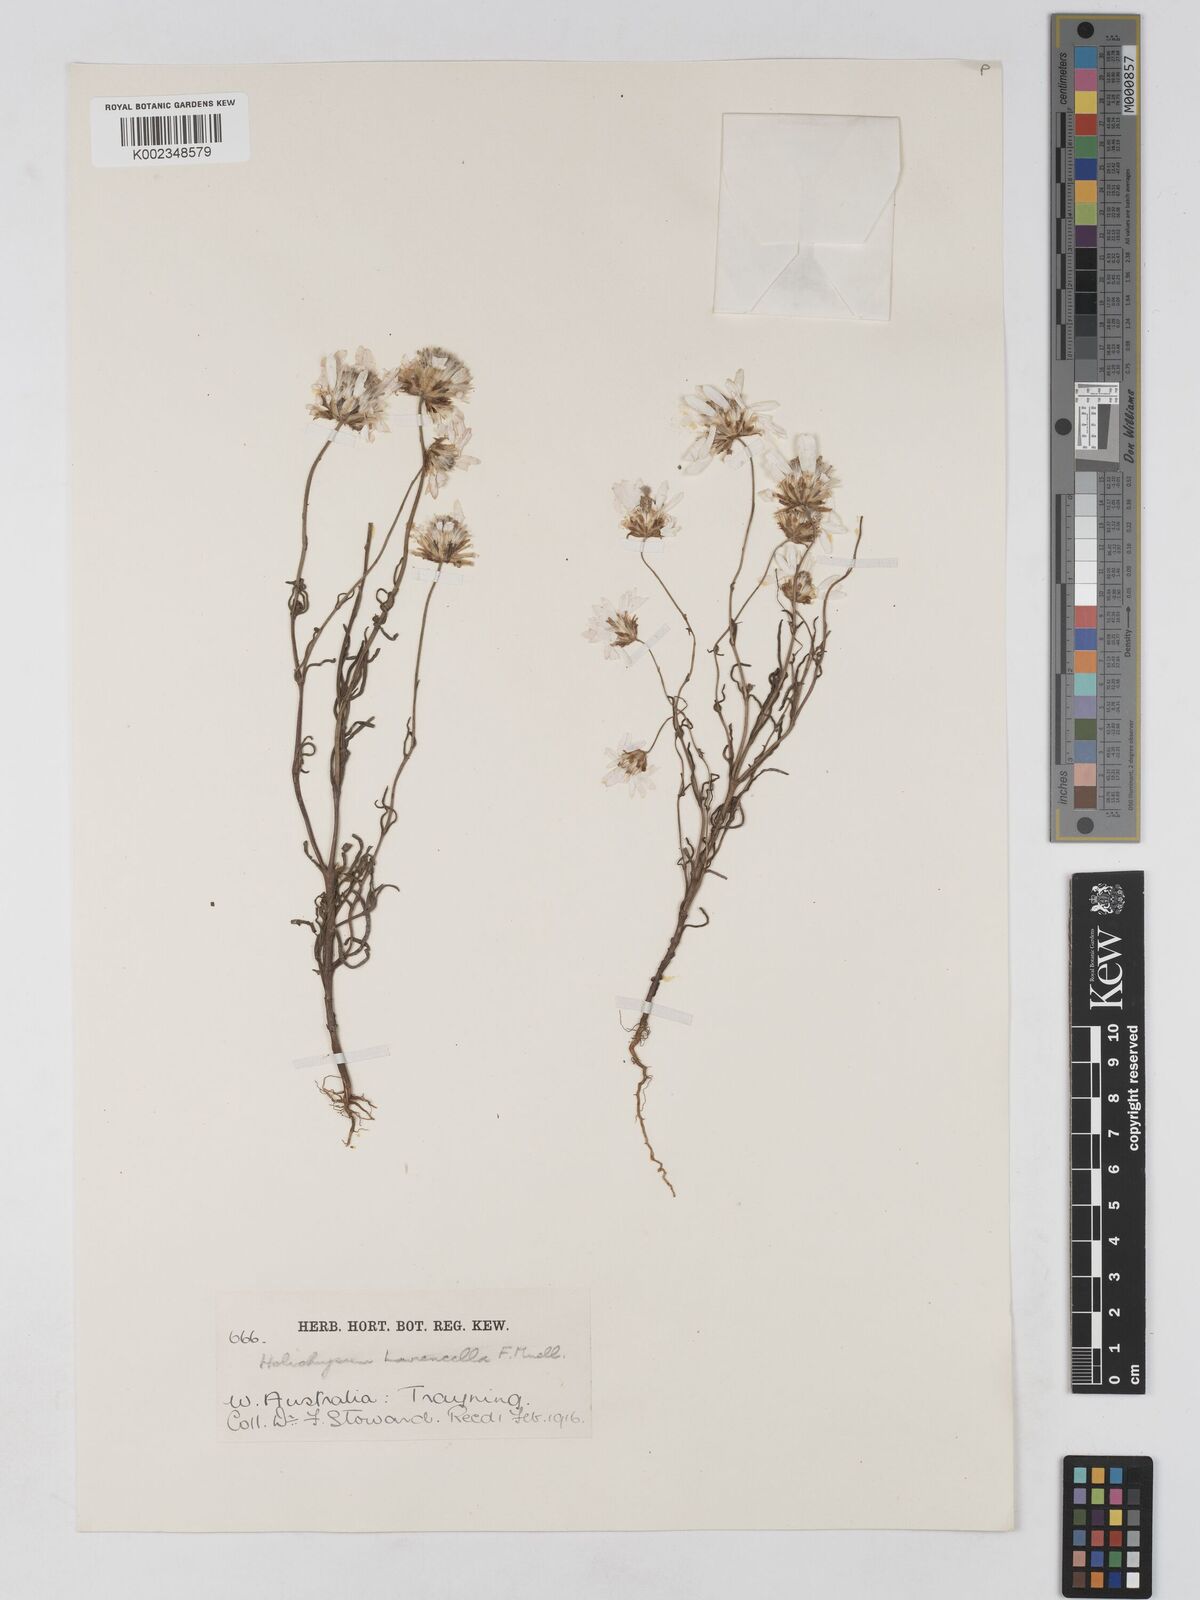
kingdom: Plantae
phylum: Tracheophyta
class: Magnoliopsida
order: Asterales
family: Asteraceae
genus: Lawrencella
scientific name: Lawrencella rosea
